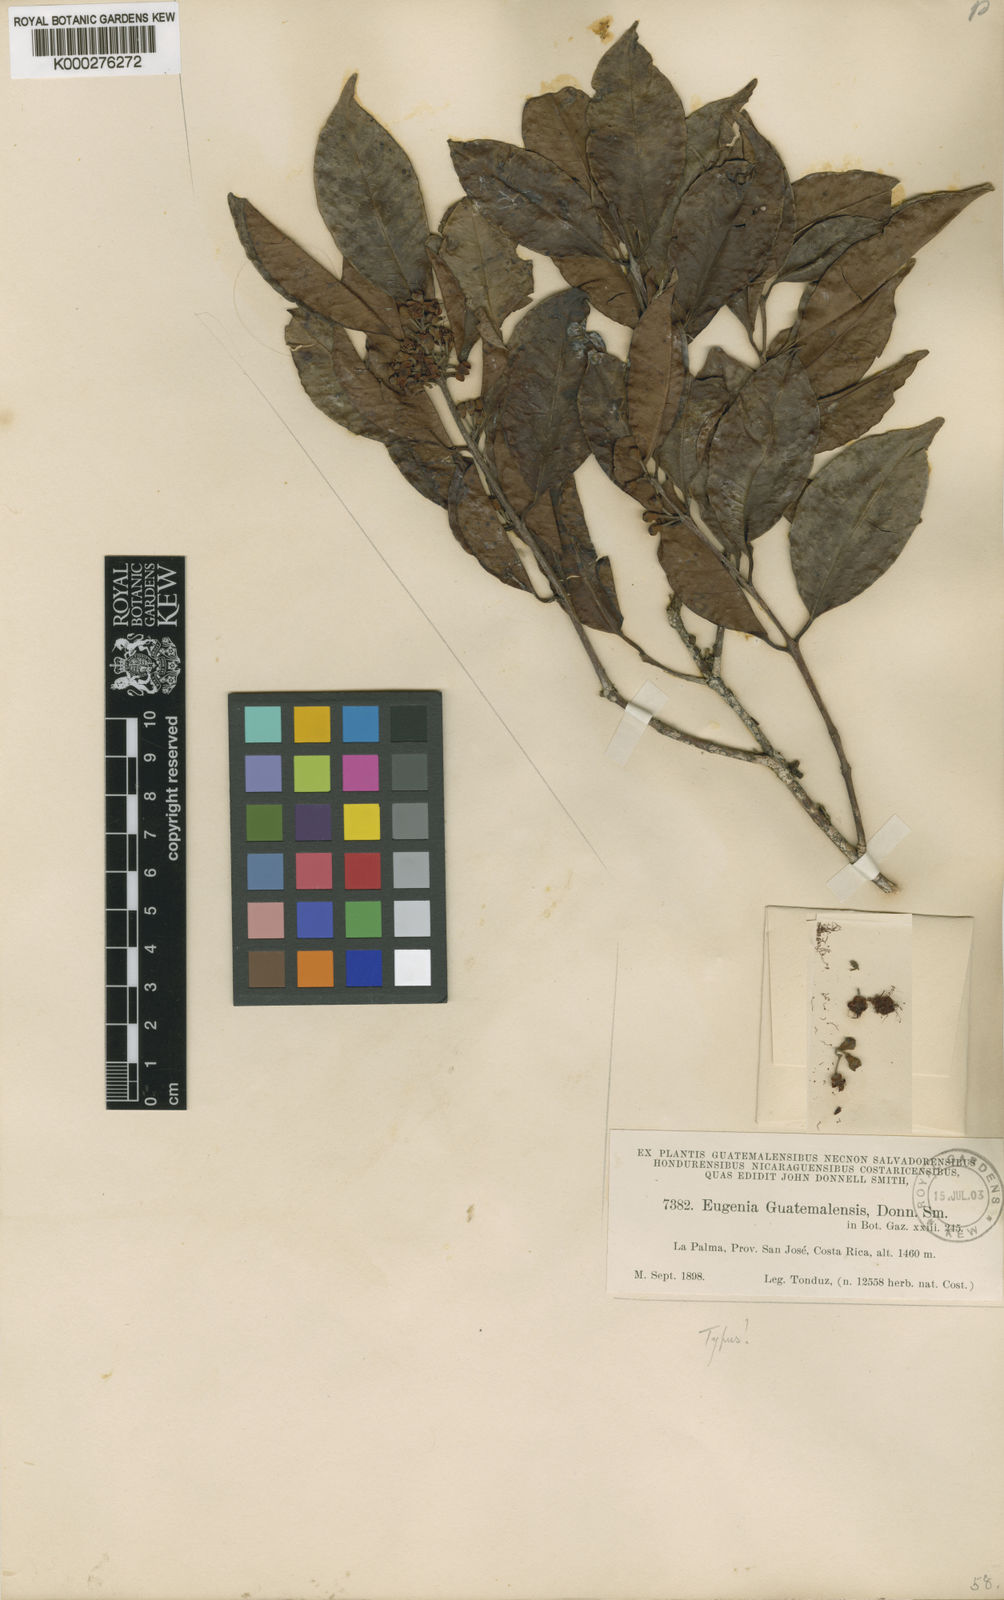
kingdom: Plantae
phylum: Tracheophyta
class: Magnoliopsida
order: Myrtales
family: Myrtaceae
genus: Eugenia
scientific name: Eugenia guatemalensis
